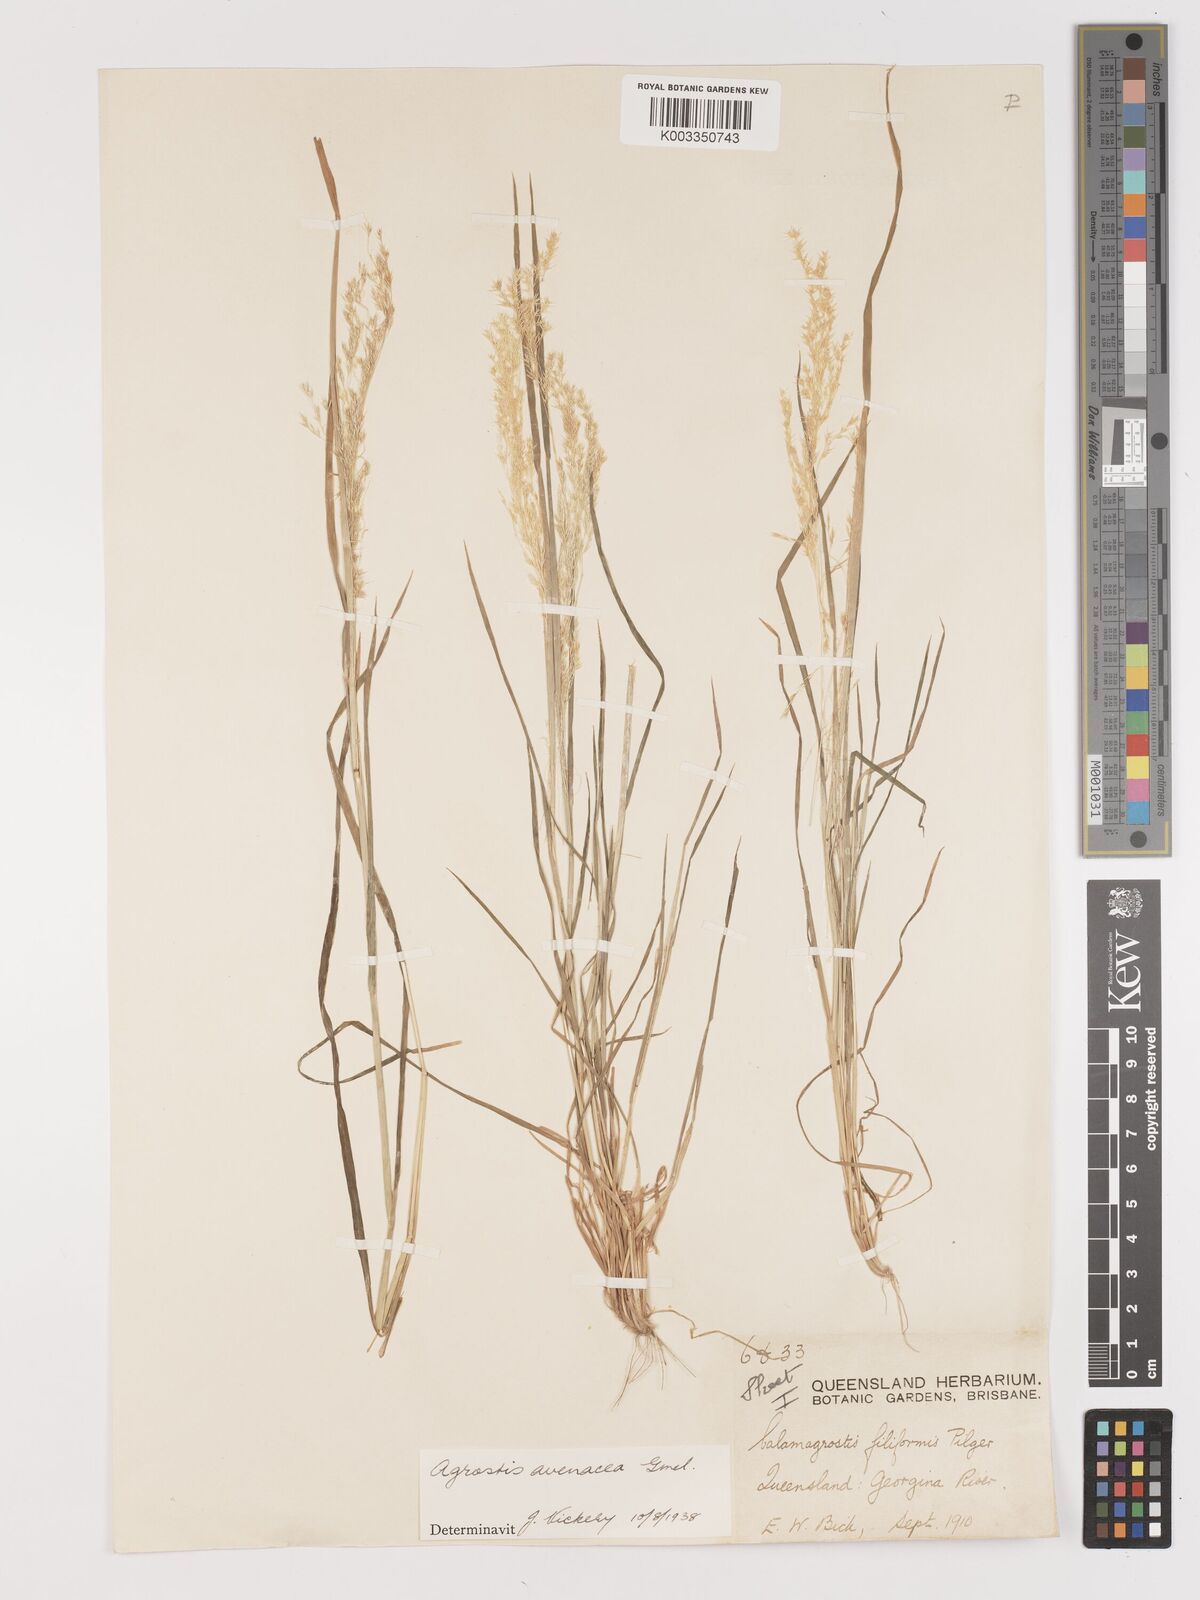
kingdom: Plantae
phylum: Tracheophyta
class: Liliopsida
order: Poales
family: Poaceae
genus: Lachnagrostis
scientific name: Lachnagrostis filiformis
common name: Bentgrass
